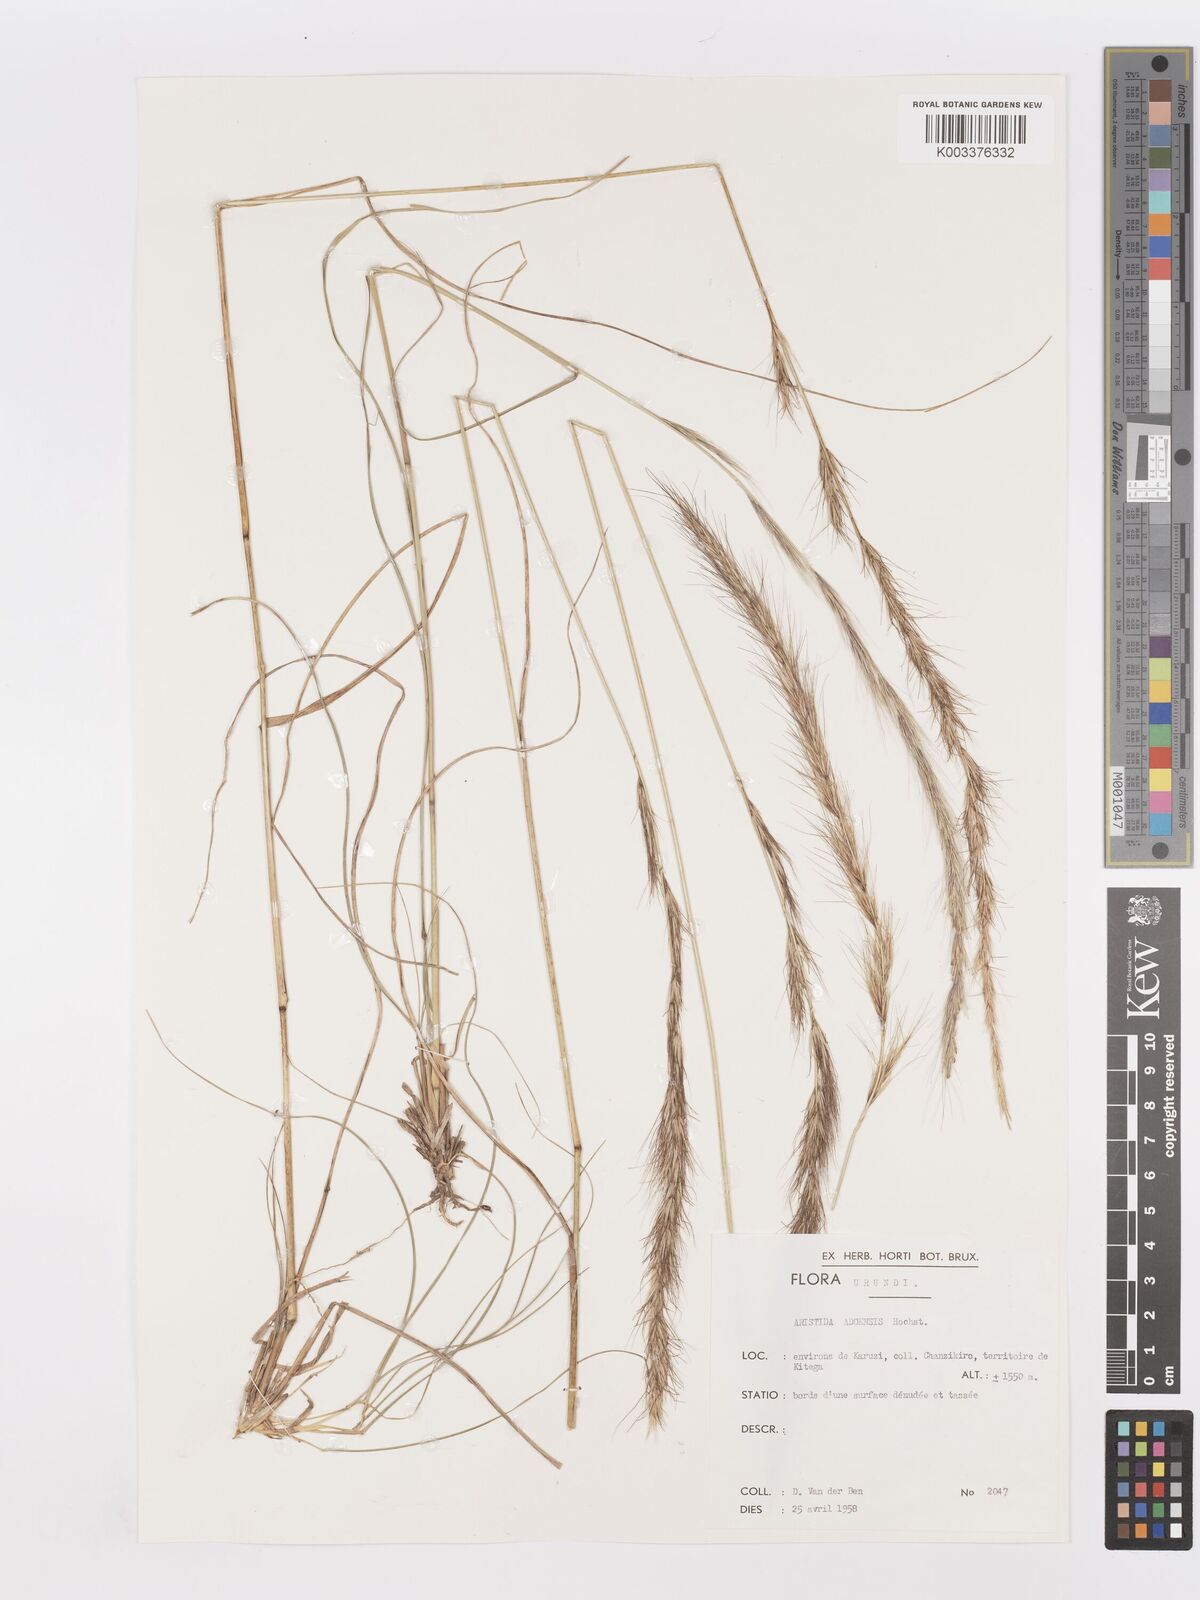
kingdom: Plantae
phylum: Tracheophyta
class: Liliopsida
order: Poales
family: Poaceae
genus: Aristida
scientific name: Aristida adoensis
